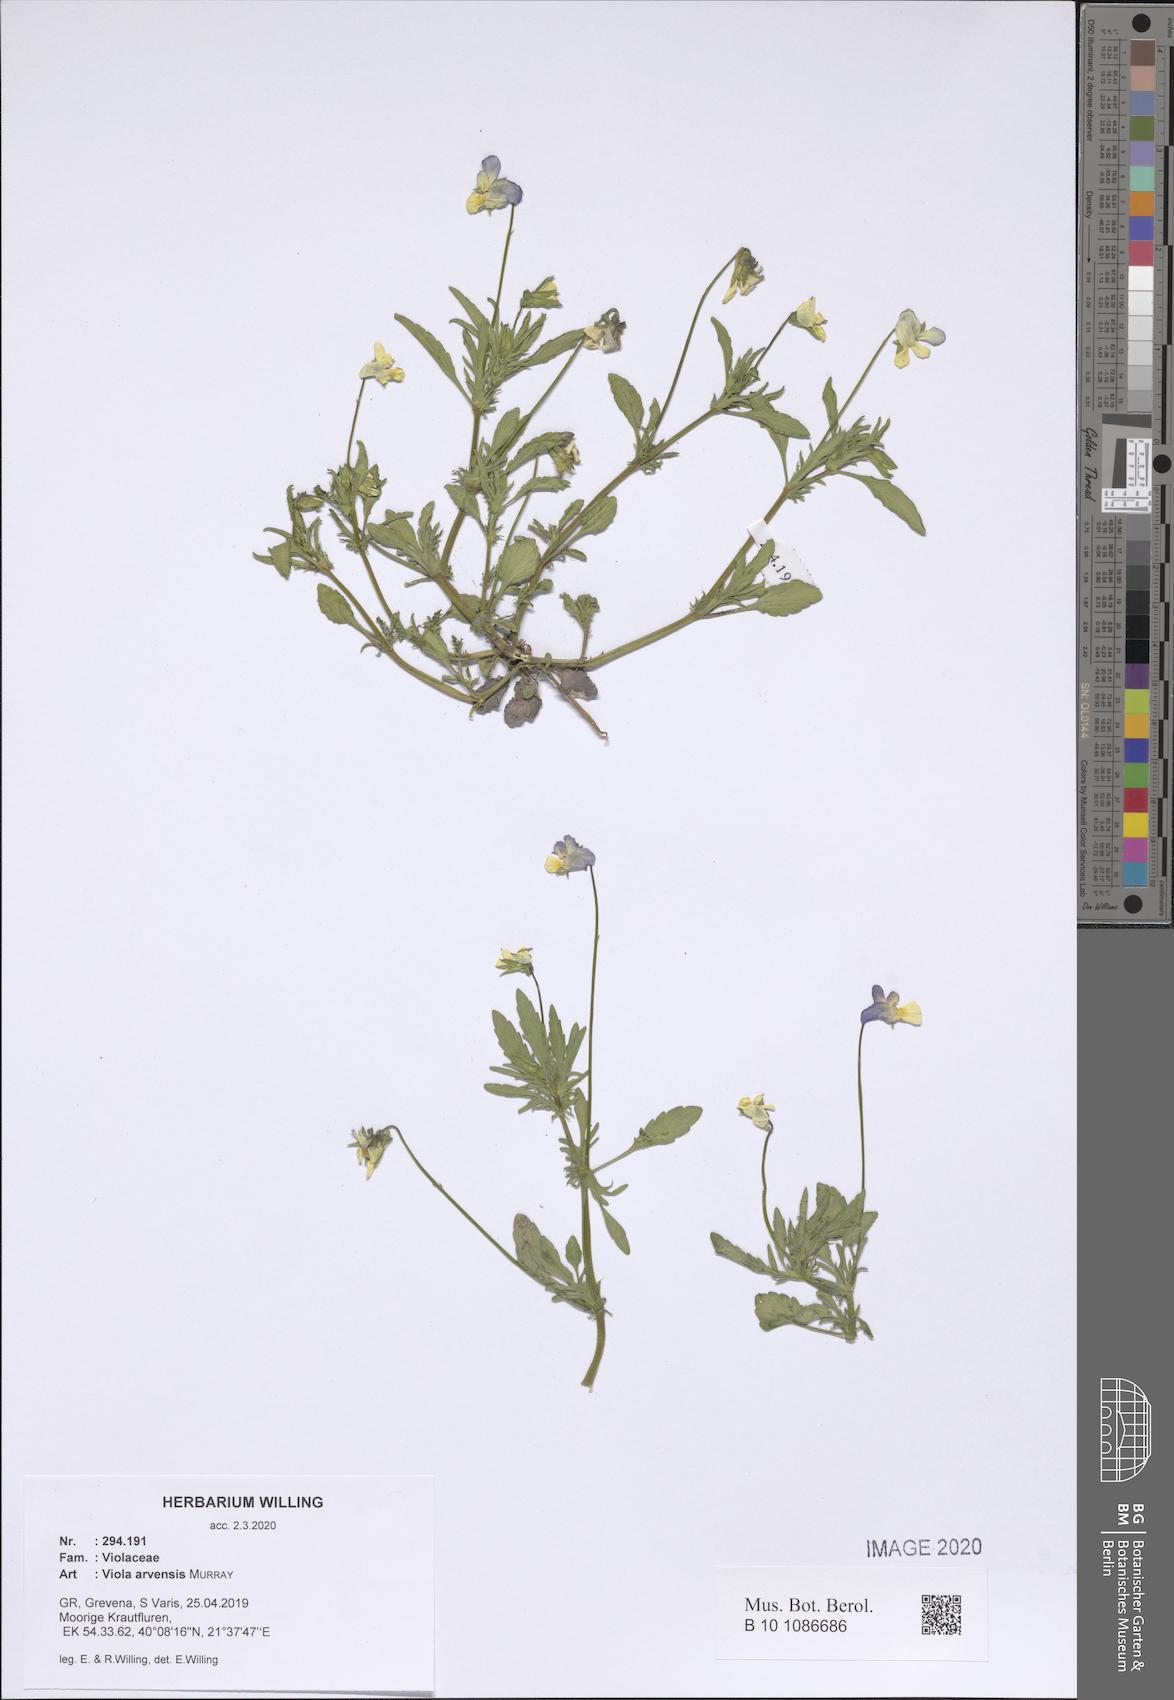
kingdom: Plantae
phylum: Tracheophyta
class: Magnoliopsida
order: Malpighiales
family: Violaceae
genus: Viola
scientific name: Viola arvensis
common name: Field pansy
